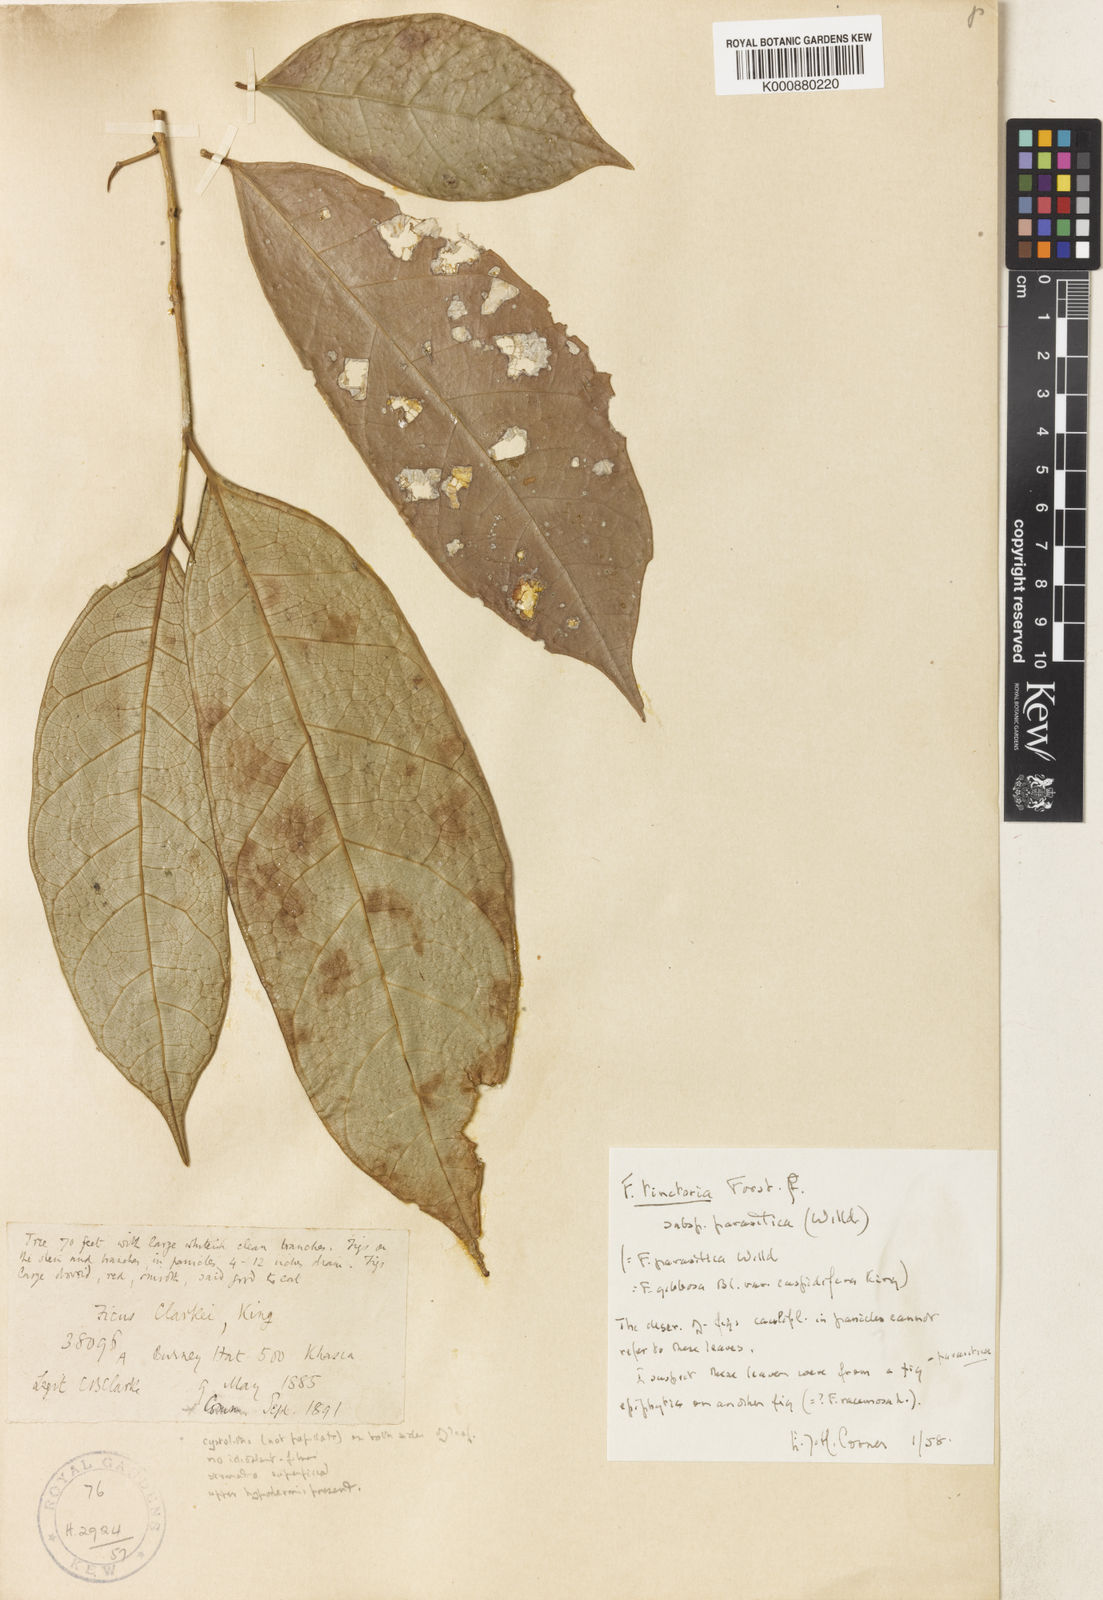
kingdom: Plantae
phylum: Tracheophyta
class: Magnoliopsida
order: Rosales
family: Moraceae
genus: Ficus
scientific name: Ficus tinctoria
